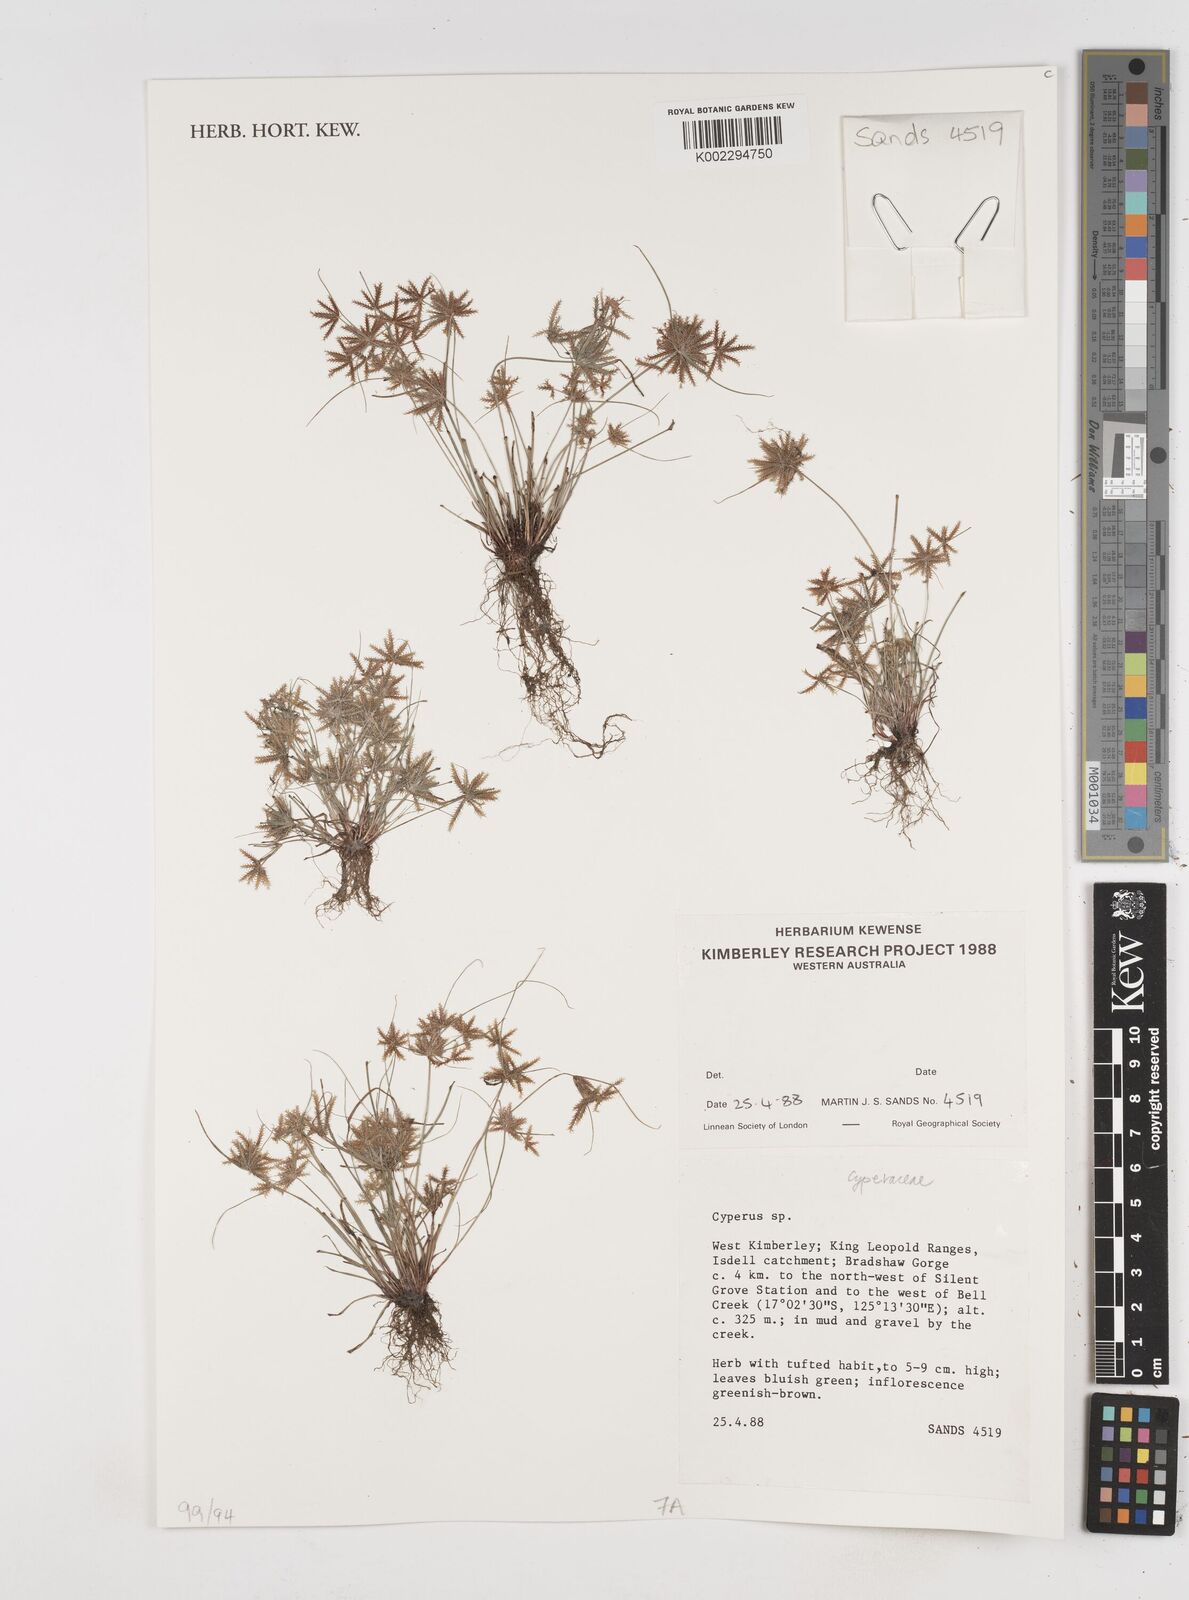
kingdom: Plantae
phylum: Tracheophyta
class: Liliopsida
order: Poales
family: Cyperaceae
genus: Cyperus
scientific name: Cyperus
